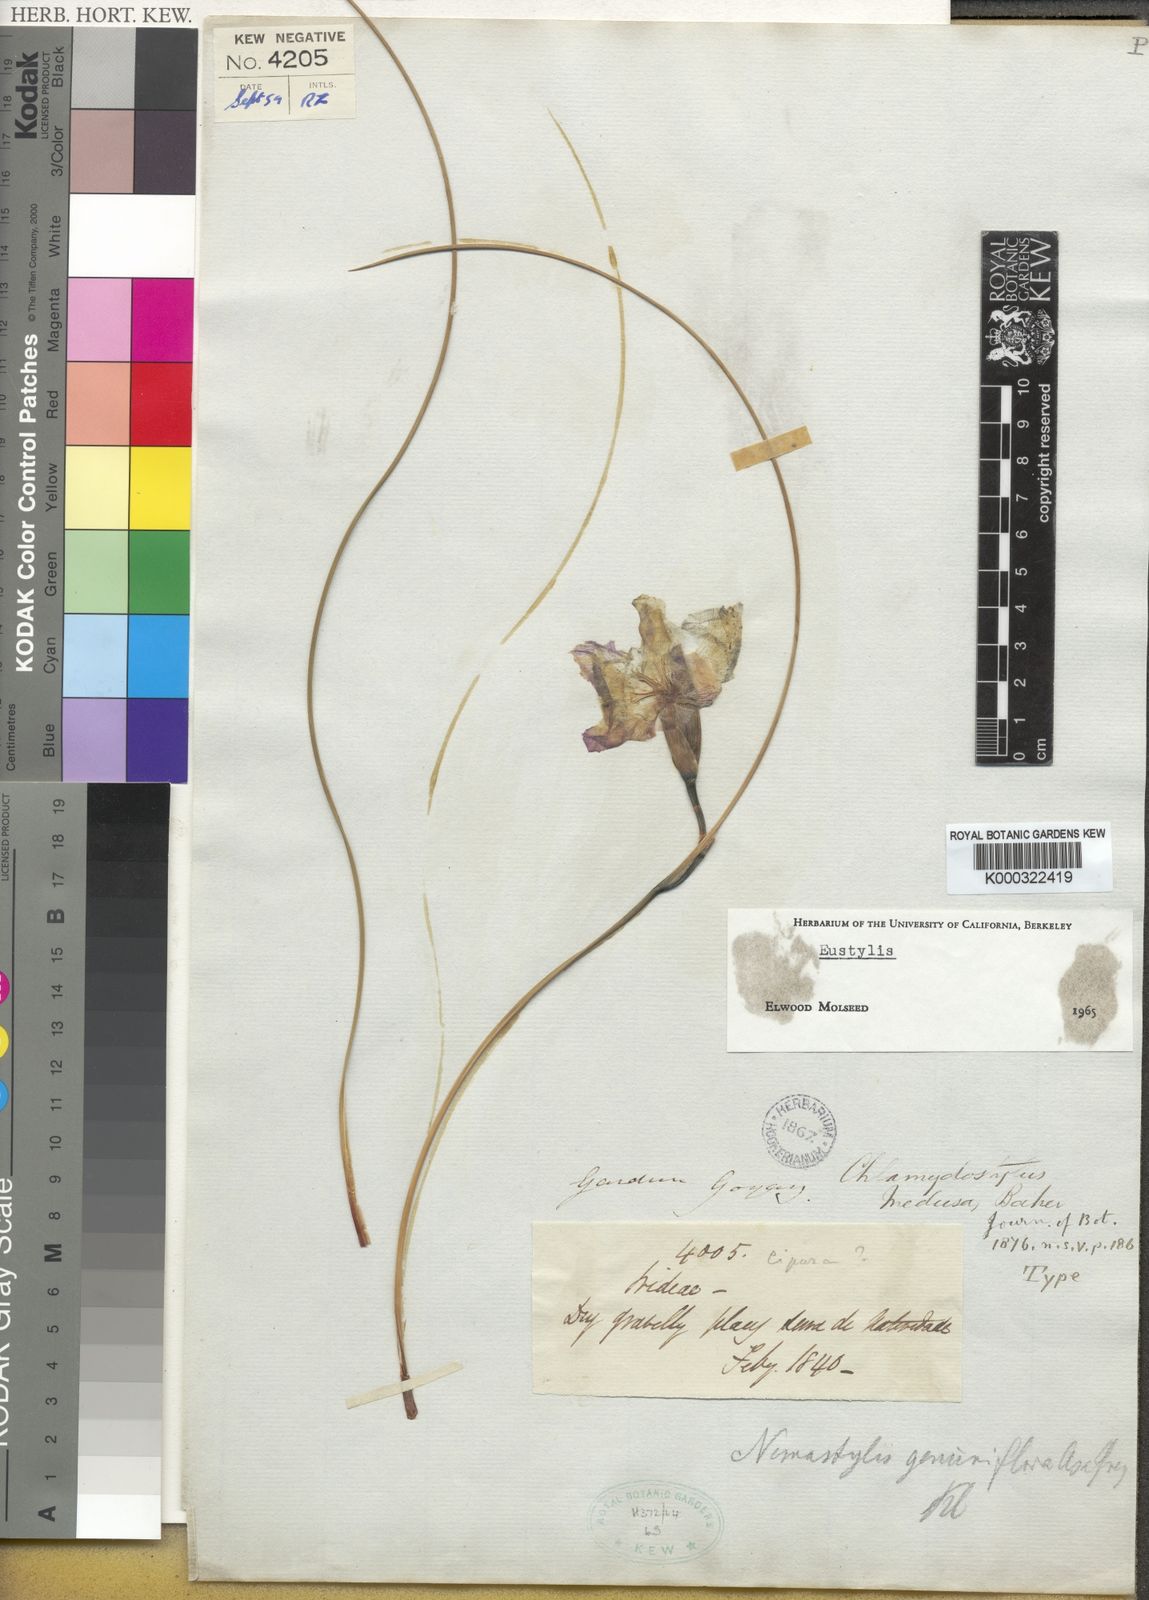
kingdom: Plantae
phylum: Tracheophyta
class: Liliopsida
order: Asparagales
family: Iridaceae
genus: Alophia
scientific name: Alophia medusa
